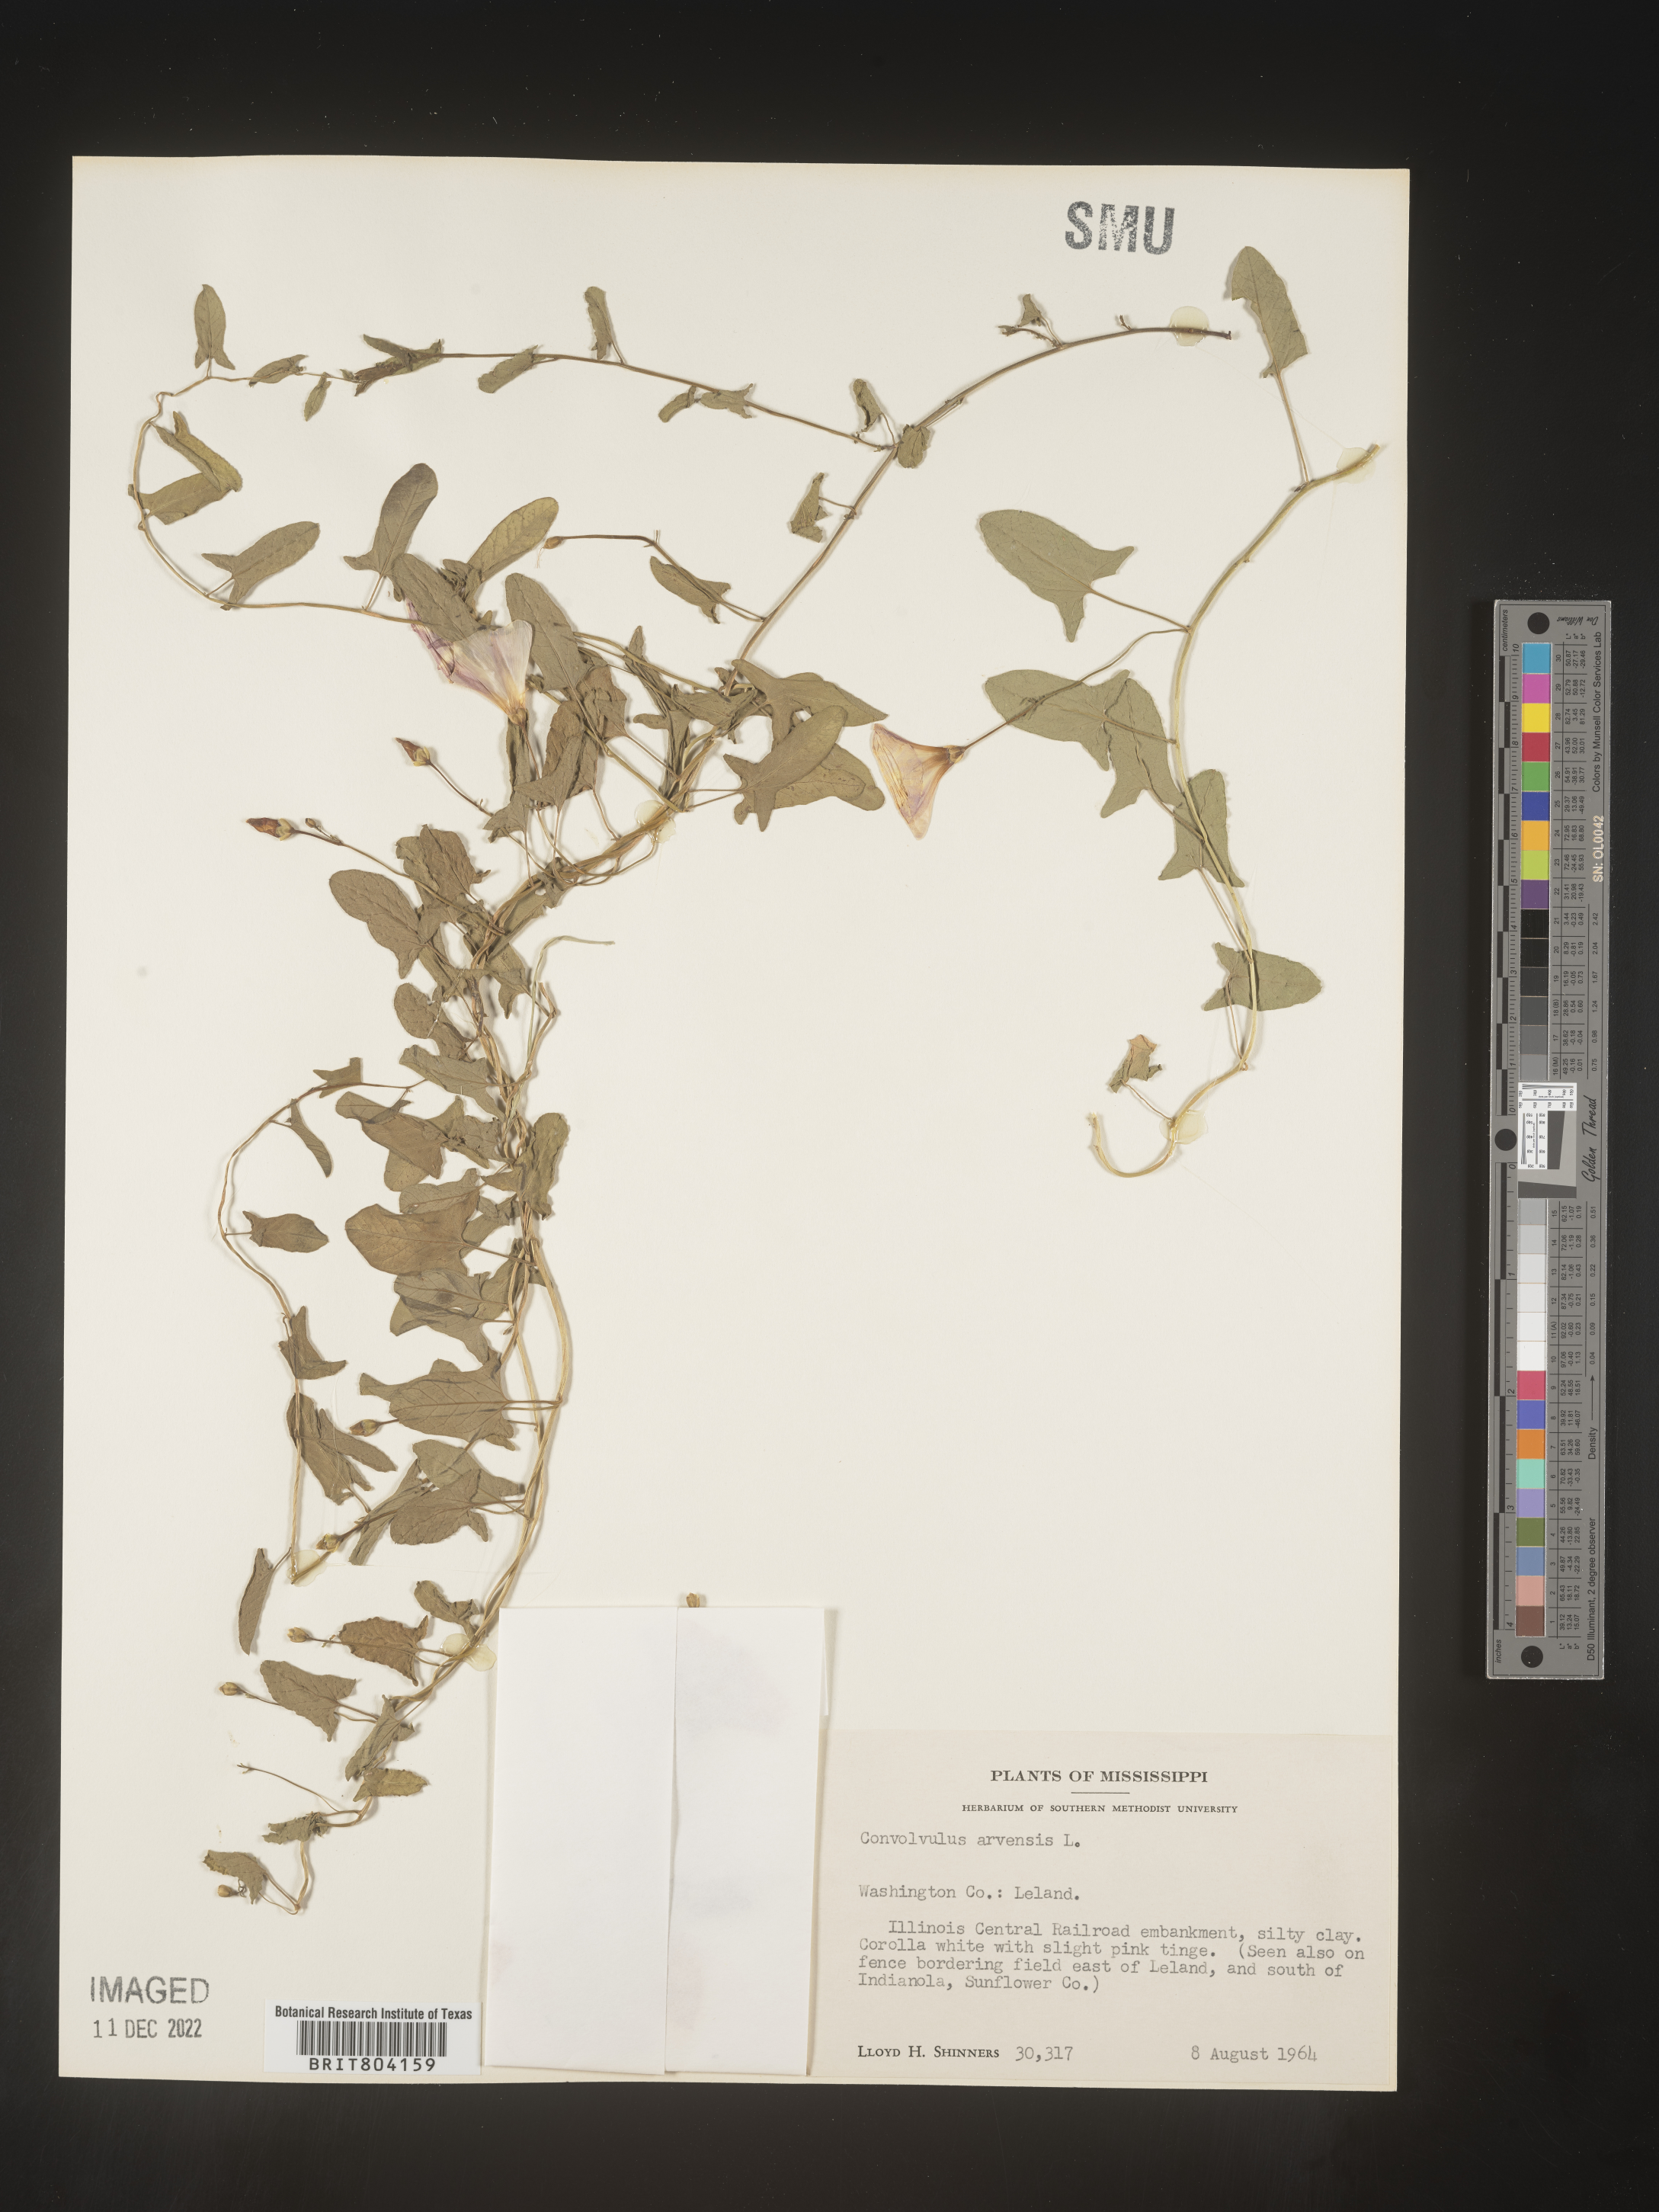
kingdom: Plantae
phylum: Tracheophyta
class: Magnoliopsida
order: Solanales
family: Convolvulaceae
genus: Convolvulus
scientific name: Convolvulus arvensis
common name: Field bindweed
